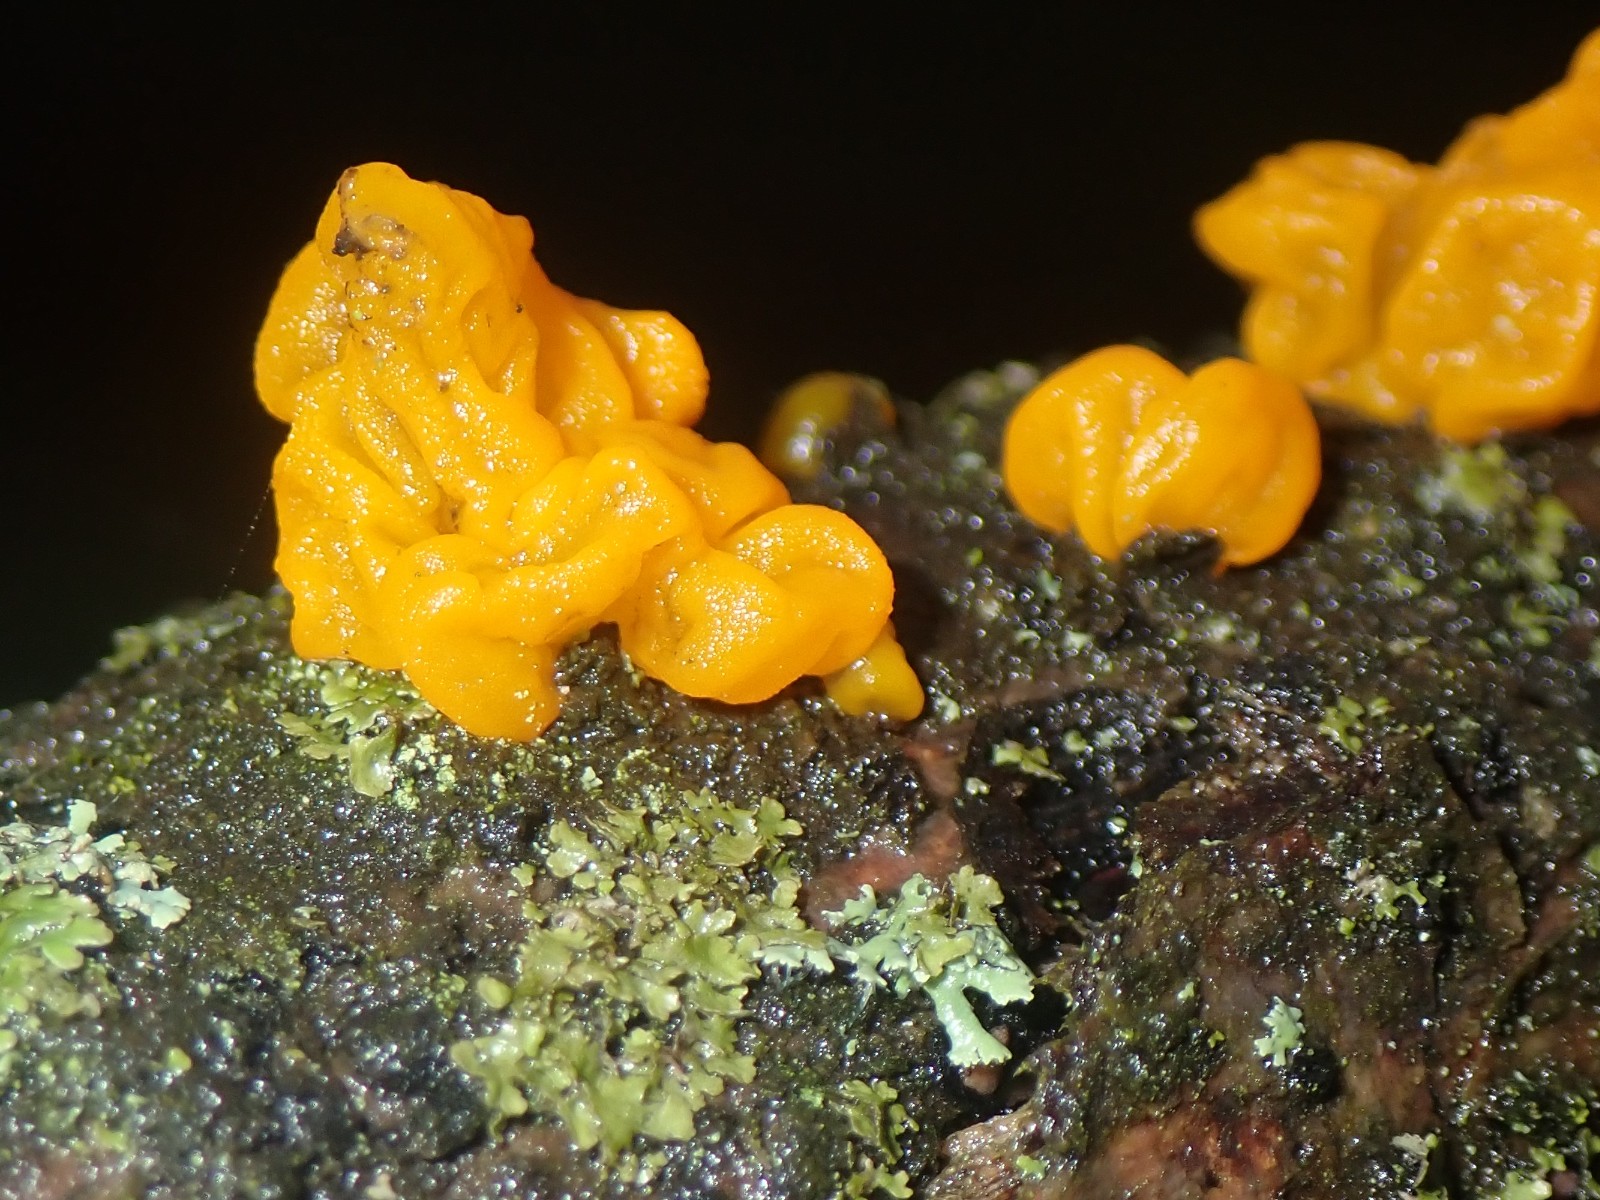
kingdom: Fungi
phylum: Basidiomycota
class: Tremellomycetes
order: Tremellales
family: Tremellaceae
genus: Tremella
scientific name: Tremella mesenterica
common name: gul bævresvamp
